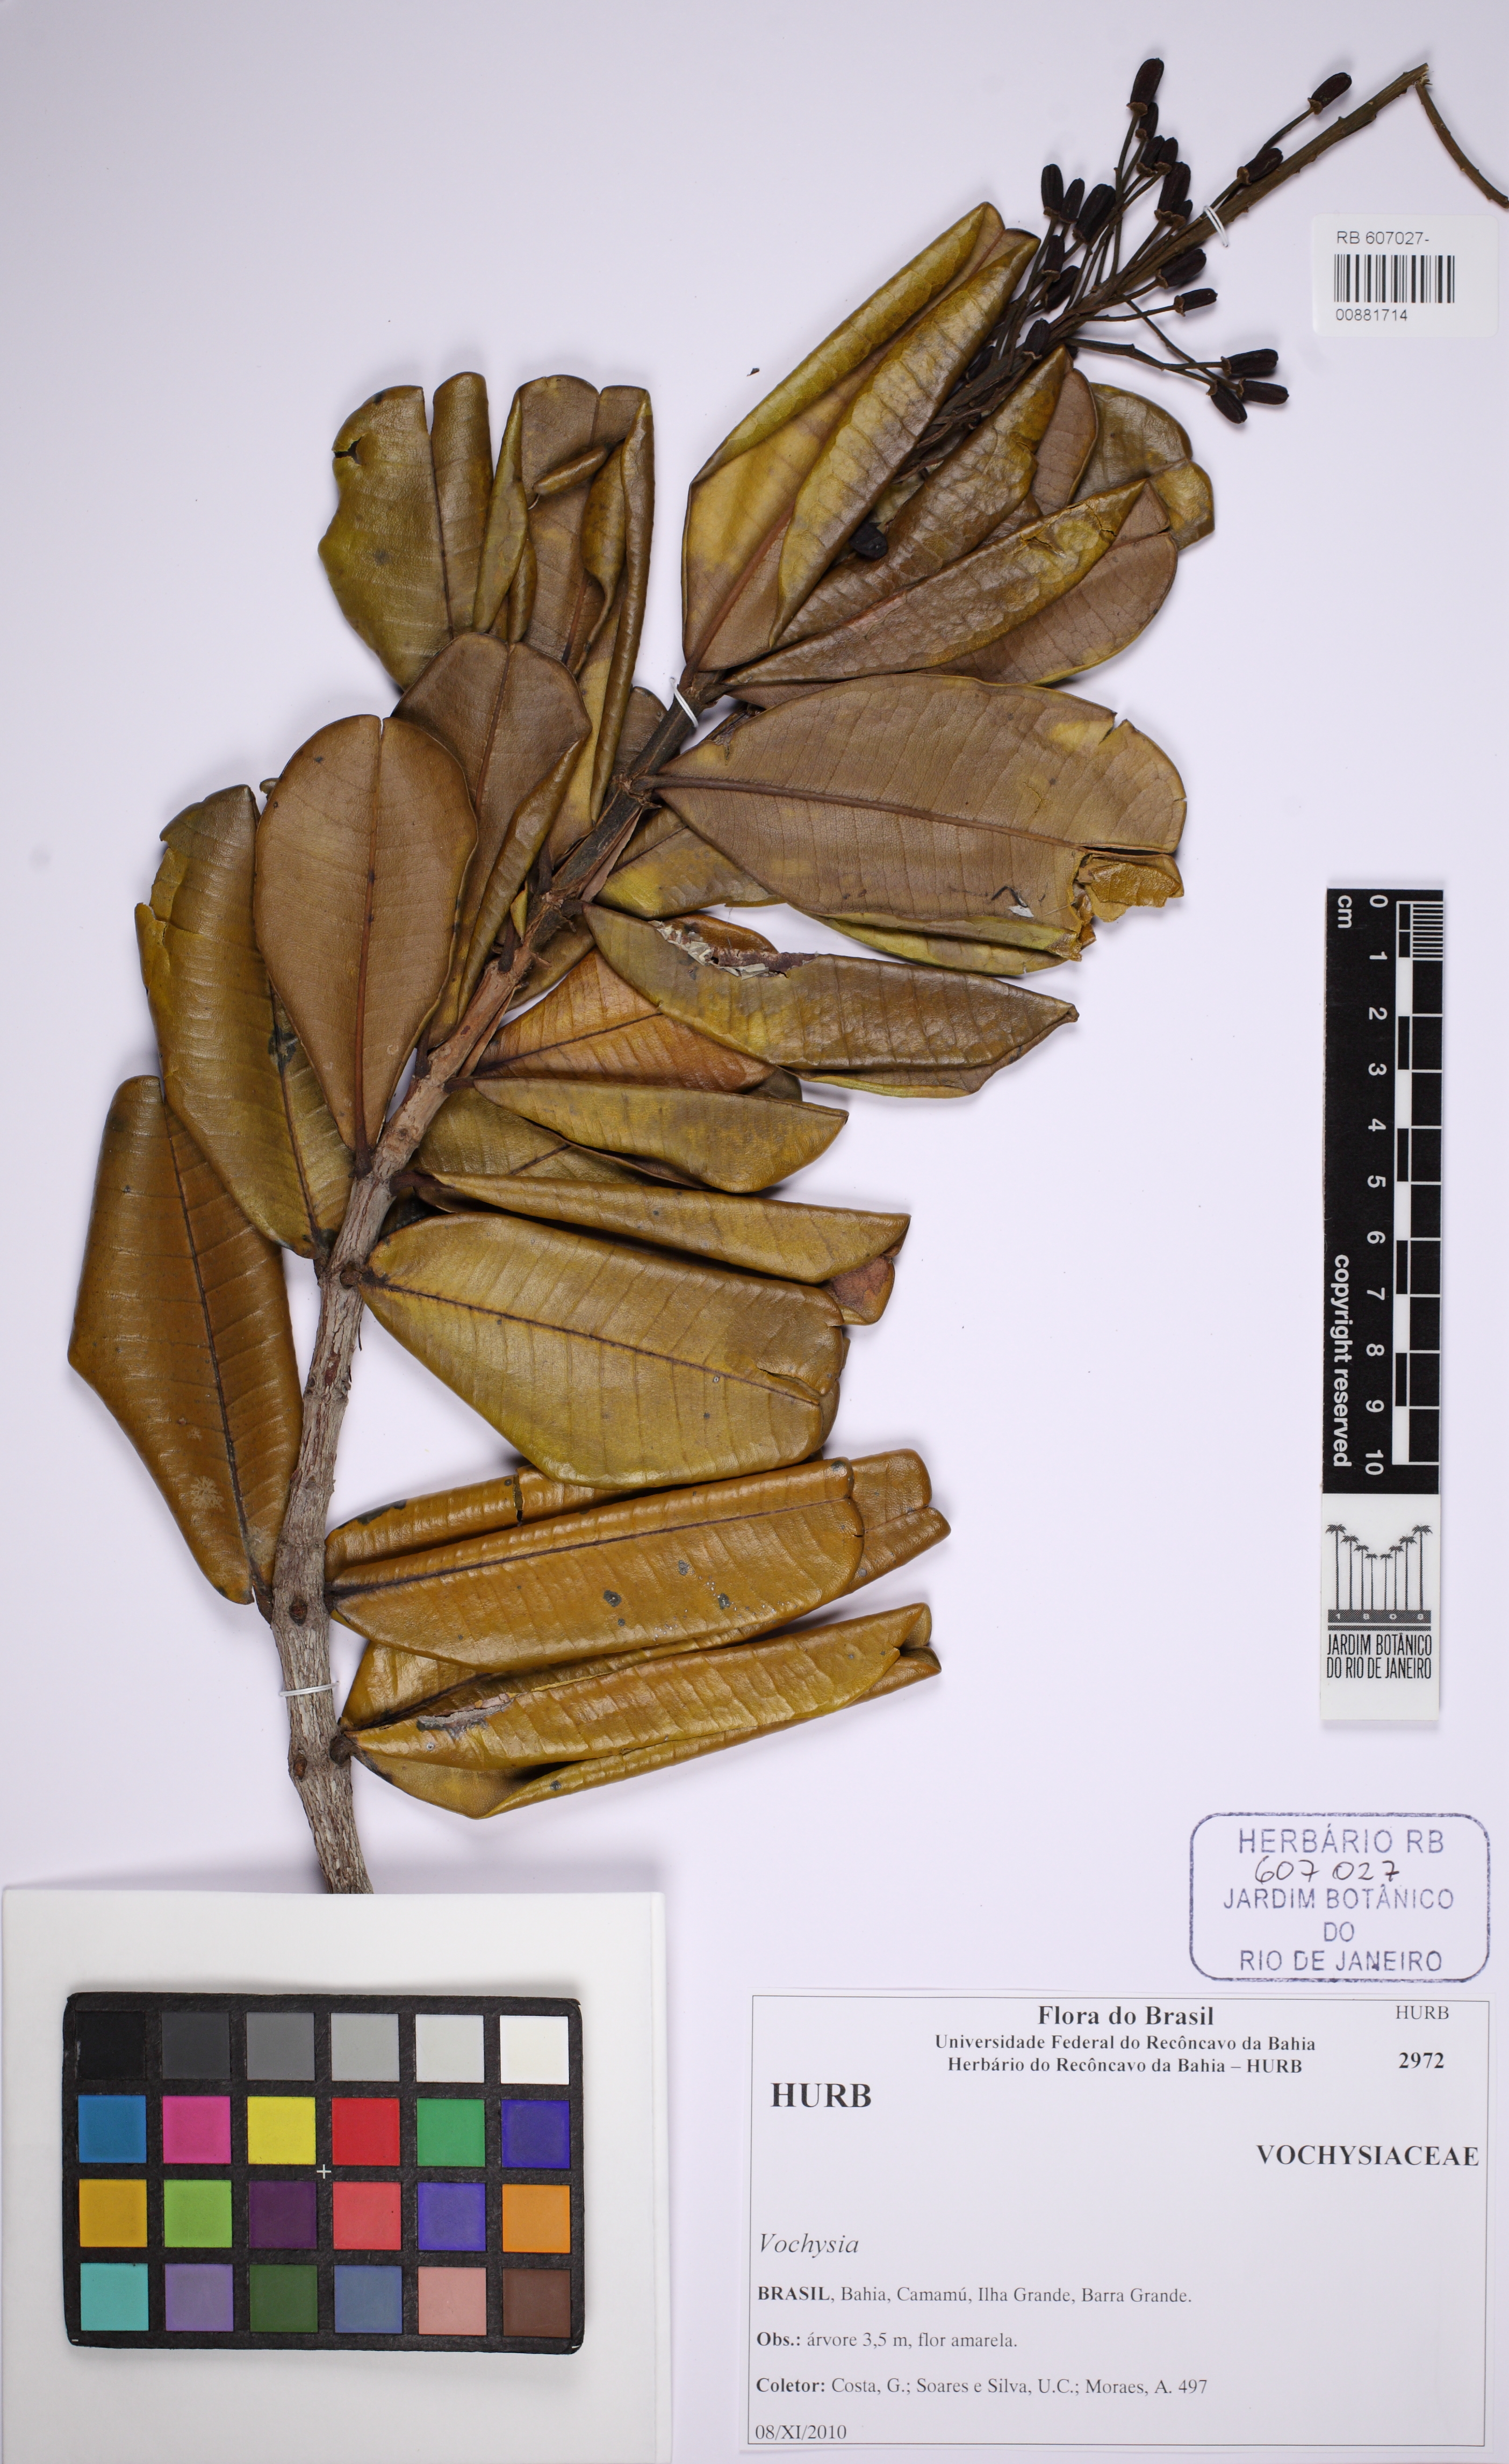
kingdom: Plantae
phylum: Tracheophyta
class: Magnoliopsida
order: Myrtales
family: Vochysiaceae
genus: Vochysia
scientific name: Vochysia
